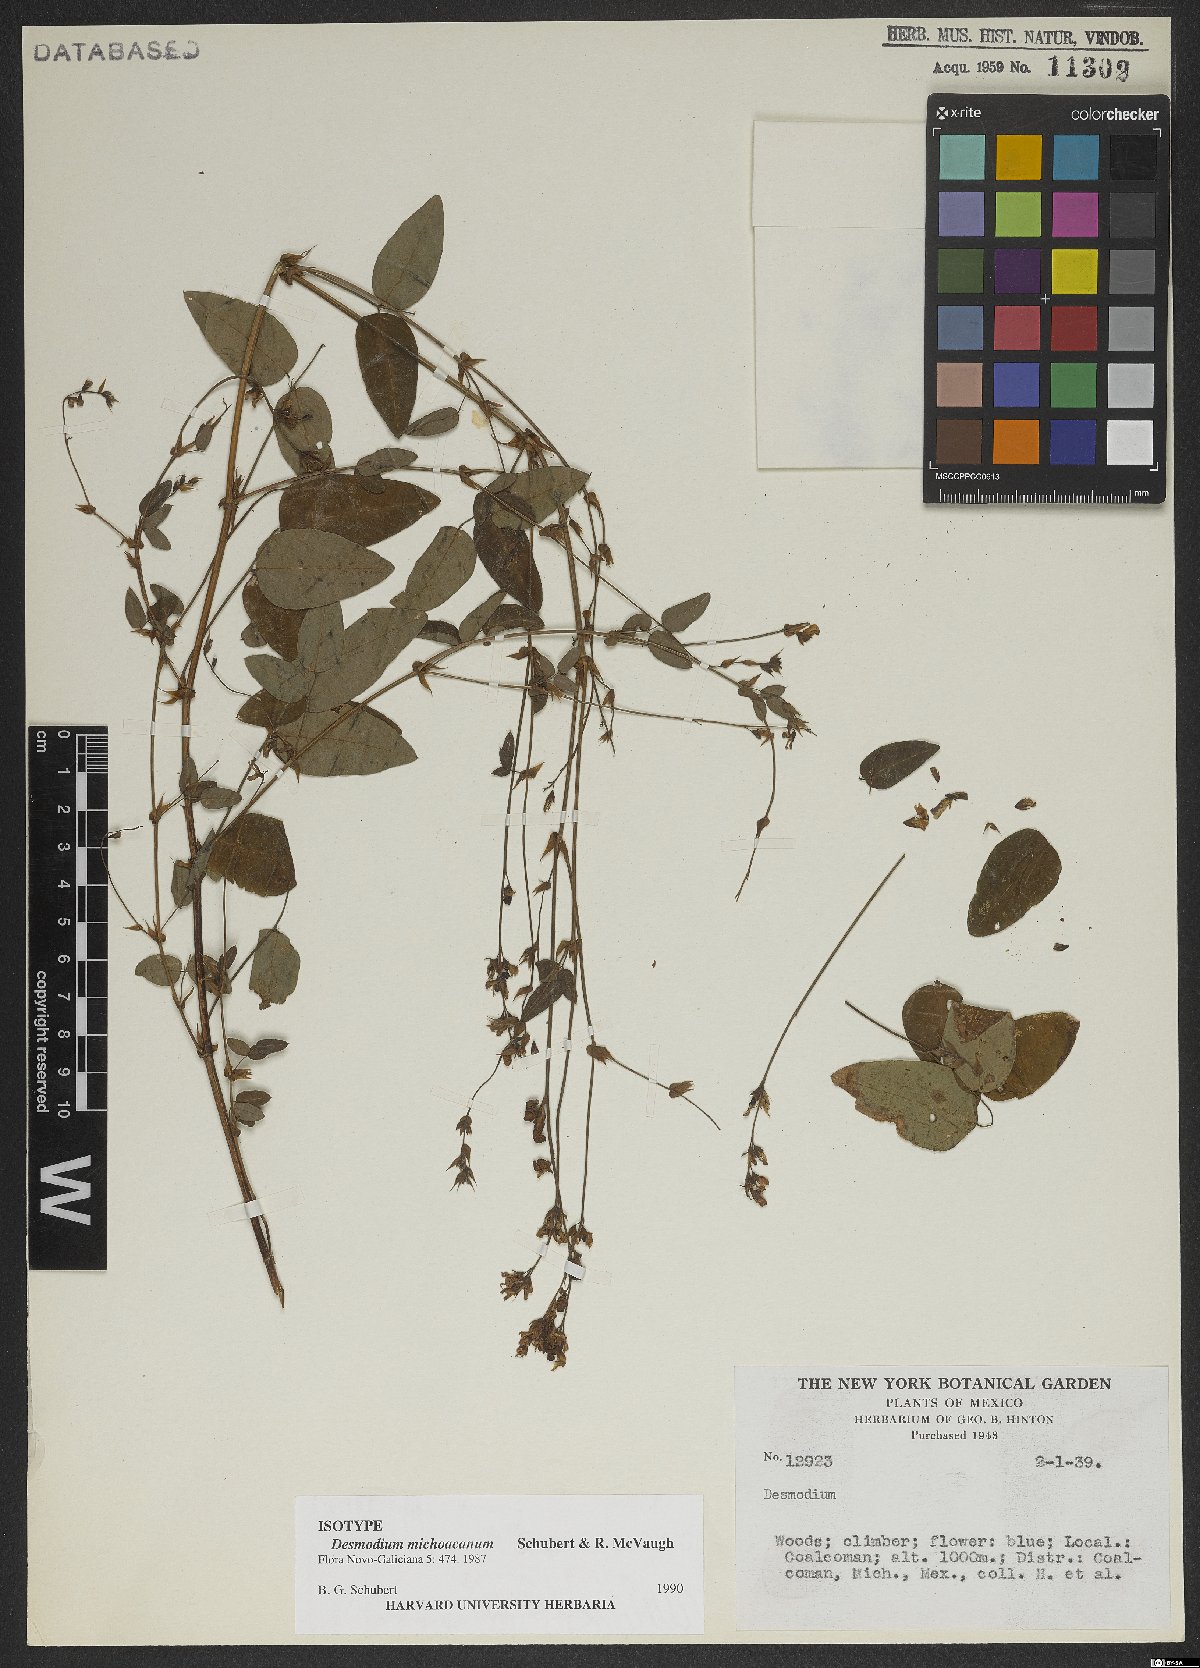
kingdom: Plantae
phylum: Tracheophyta
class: Magnoliopsida
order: Fabales
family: Fabaceae
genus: Desmodium
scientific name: Desmodium michoacanum
